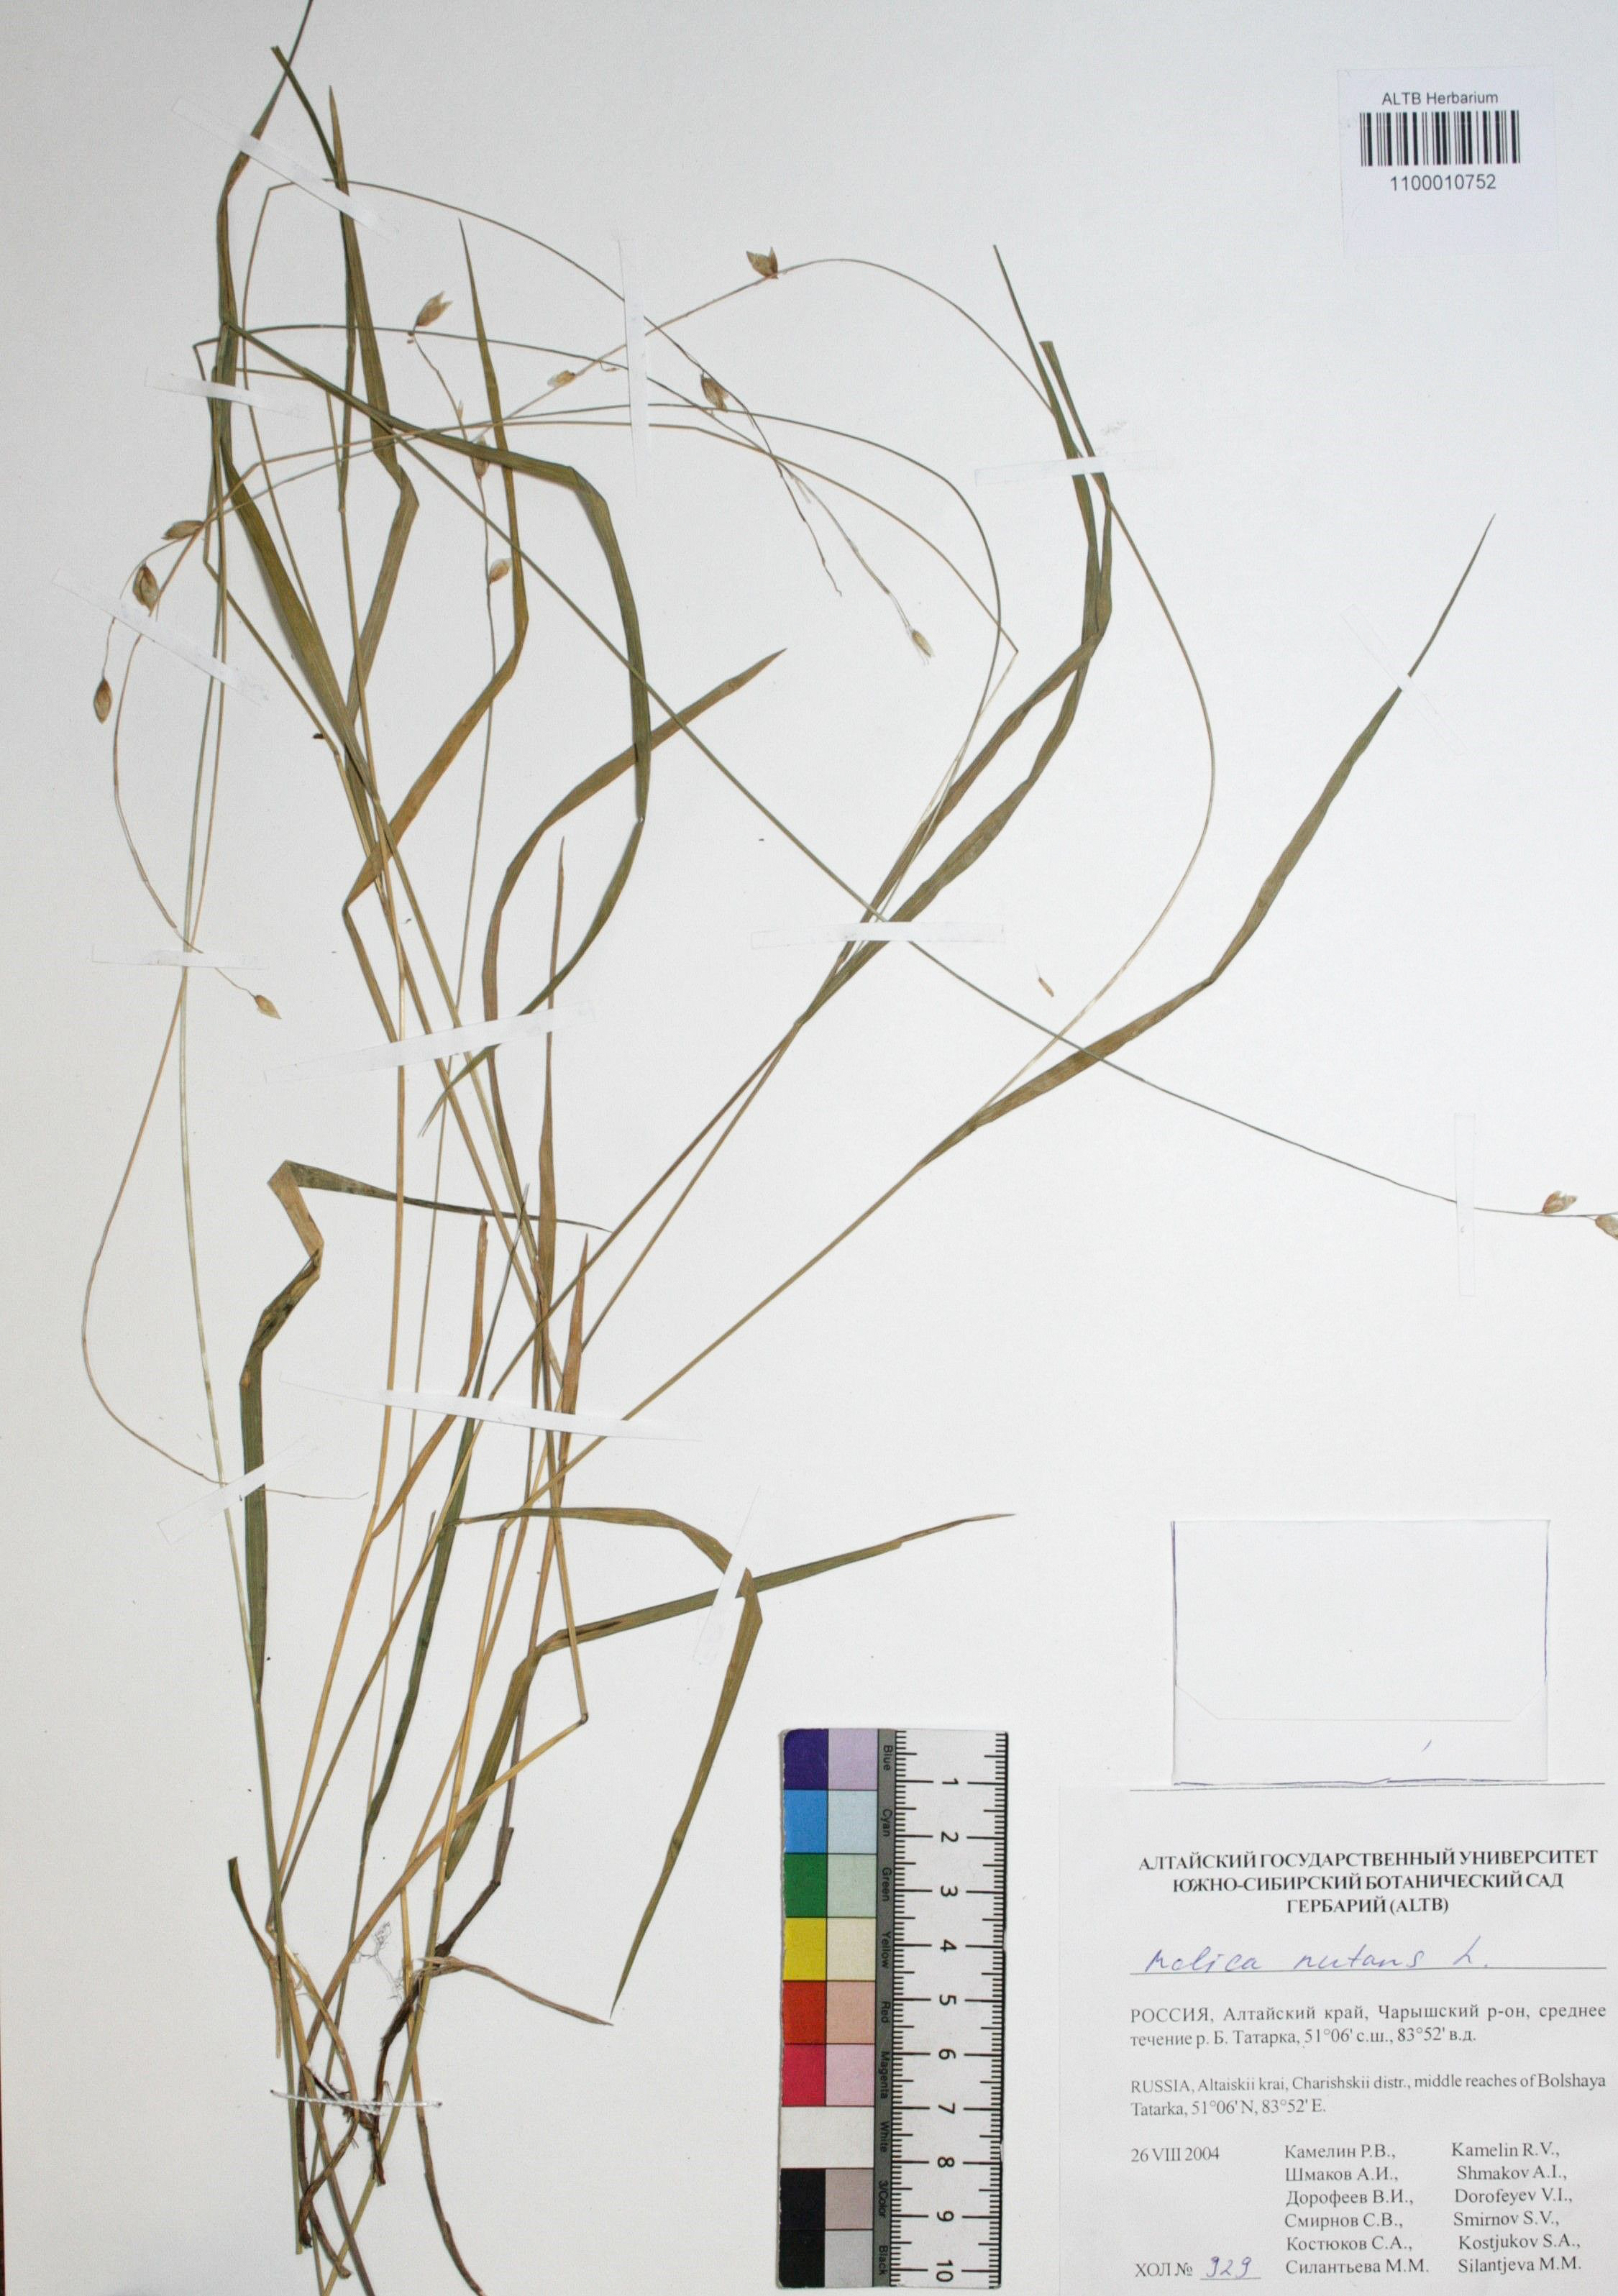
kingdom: Plantae
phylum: Tracheophyta
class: Liliopsida
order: Poales
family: Poaceae
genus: Melica
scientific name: Melica nutans
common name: Mountain melick
